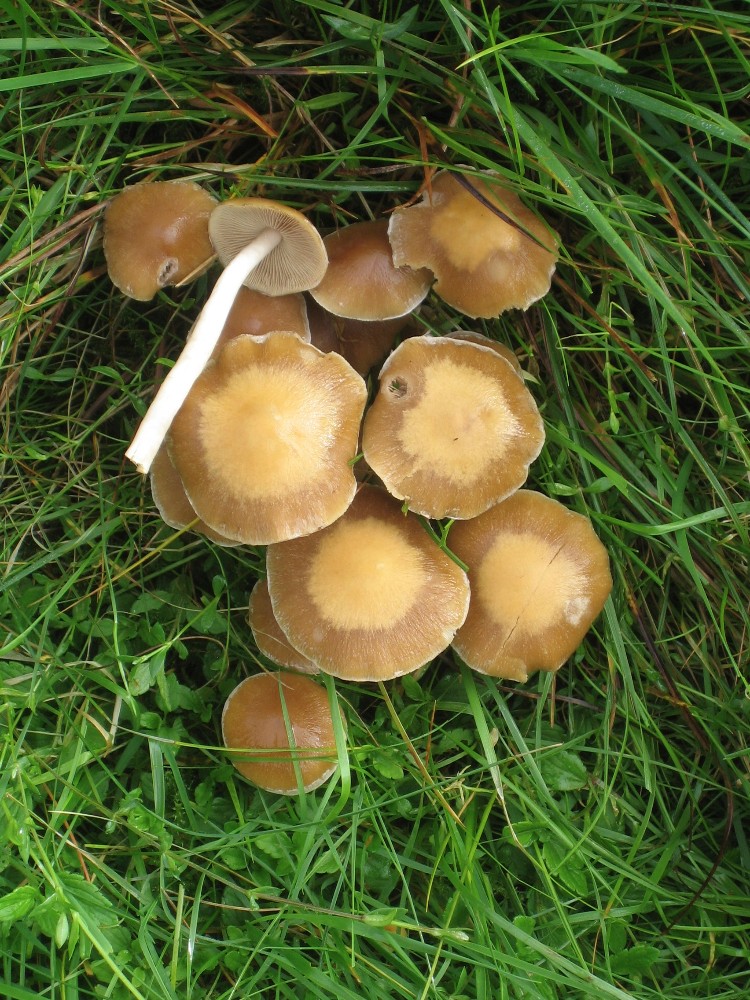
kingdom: Fungi
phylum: Basidiomycota
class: Agaricomycetes
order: Agaricales
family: Psathyrellaceae
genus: Candolleomyces
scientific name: Candolleomyces candolleanus
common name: Candolles mørkhat
